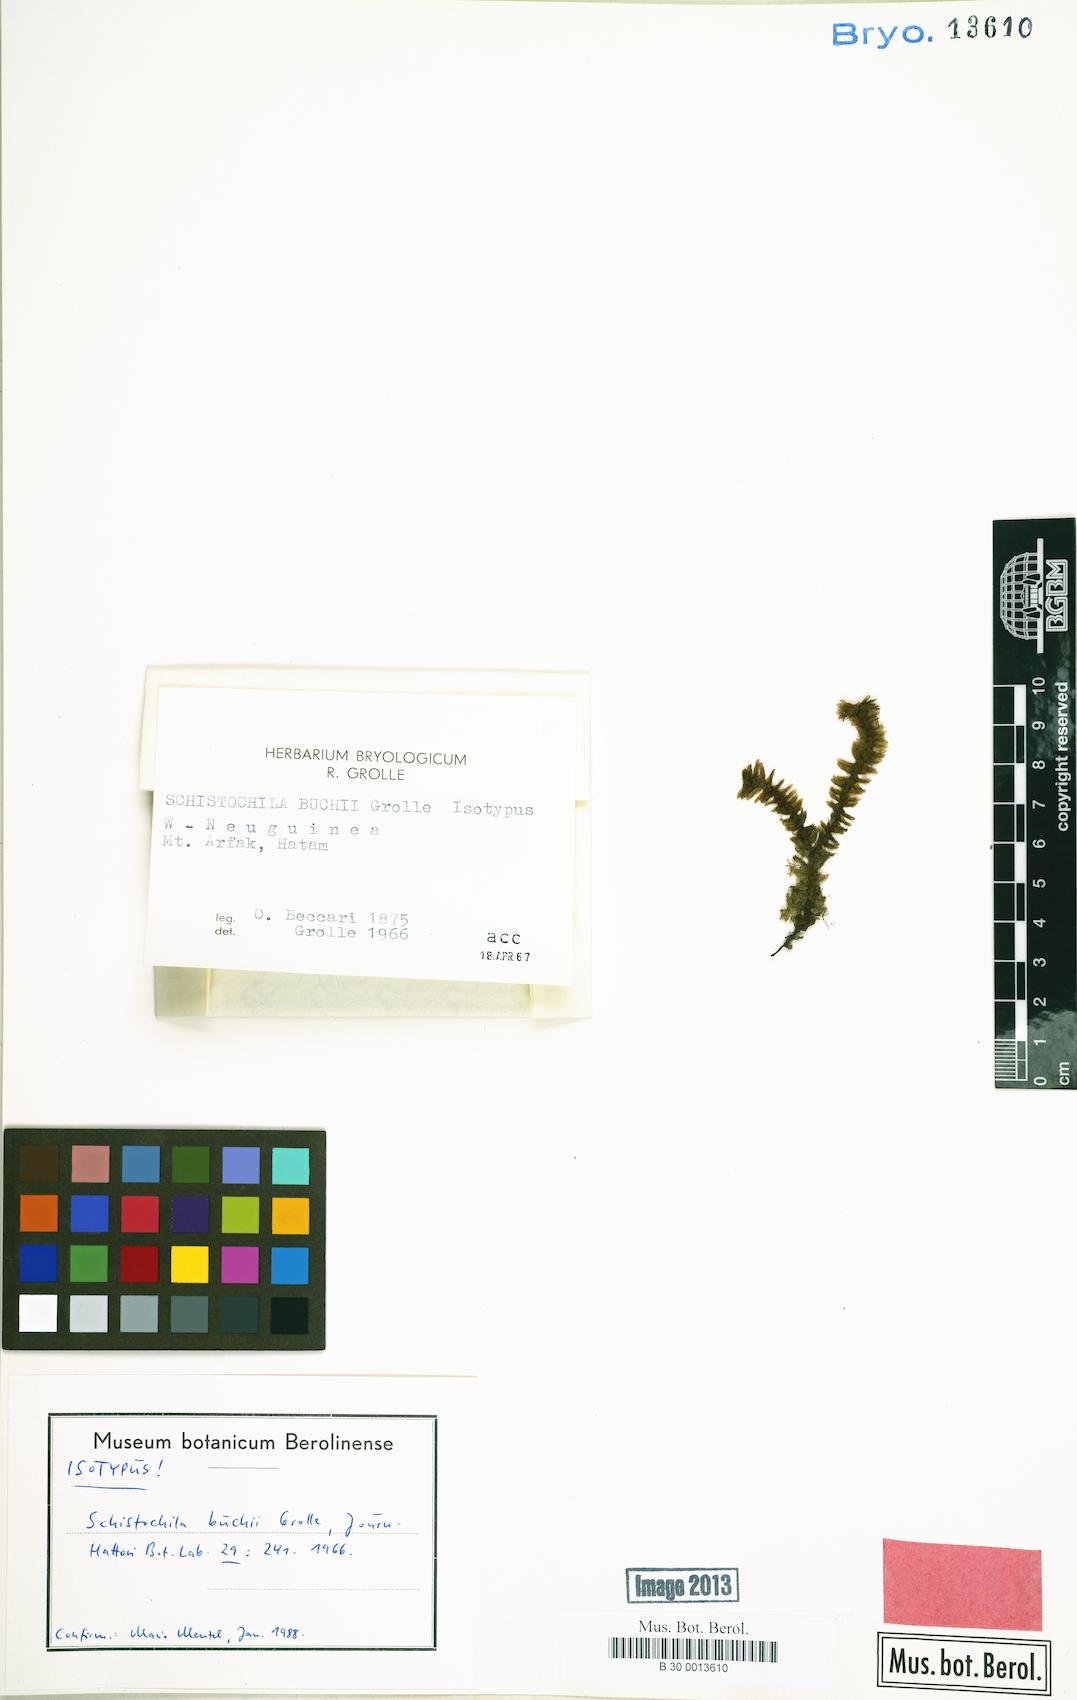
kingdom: Plantae
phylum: Marchantiophyta
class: Jungermanniopsida
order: Jungermanniales
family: Schistochilaceae
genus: Schistochila
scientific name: Schistochila blumei
